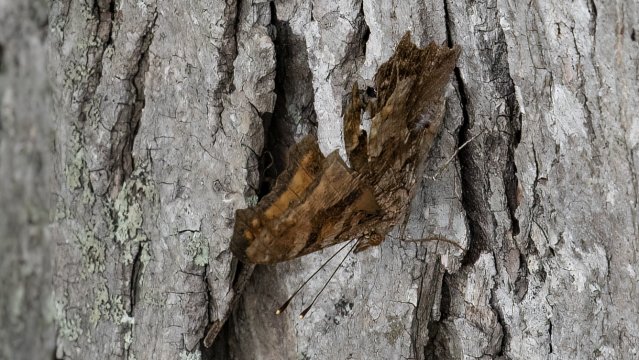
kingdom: Animalia
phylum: Arthropoda
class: Insecta
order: Lepidoptera
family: Nymphalidae
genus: Polygonia
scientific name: Polygonia comma
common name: Eastern Comma
